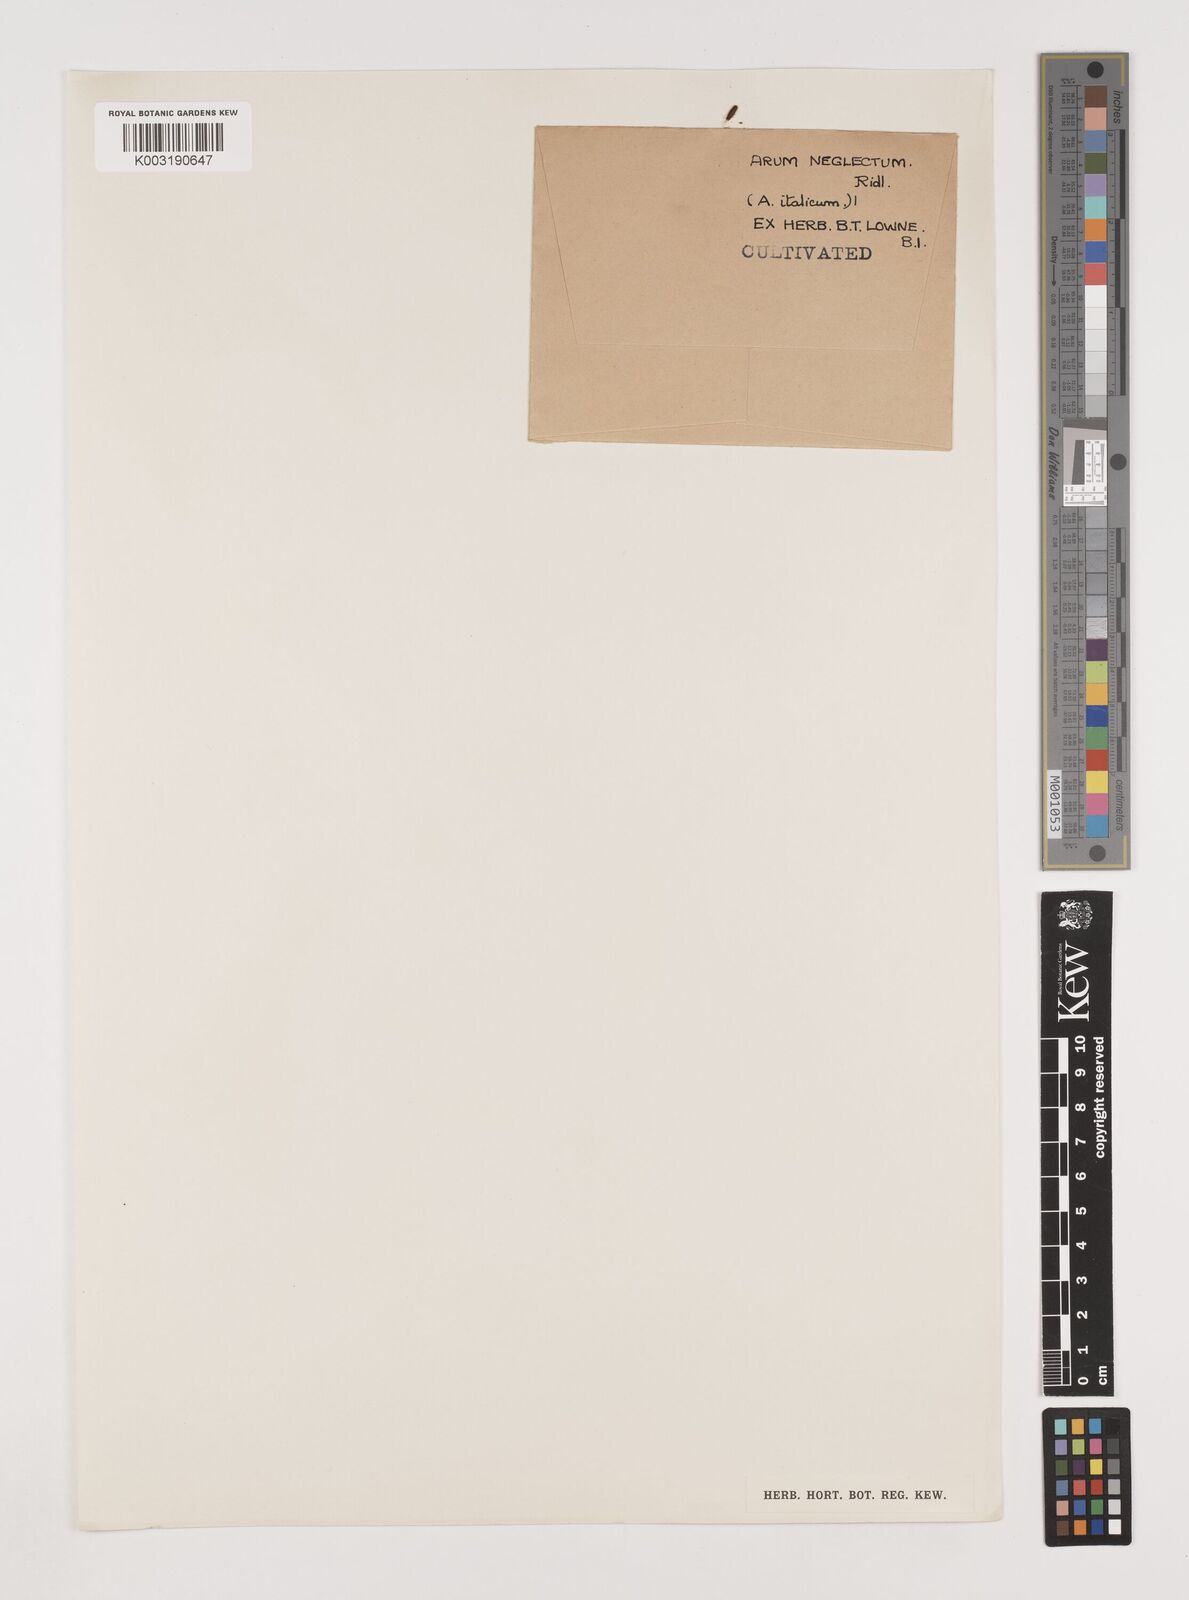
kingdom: Plantae
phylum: Tracheophyta
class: Liliopsida
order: Alismatales
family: Araceae
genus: Arum
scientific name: Arum italicum
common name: Italian lords-and-ladies
